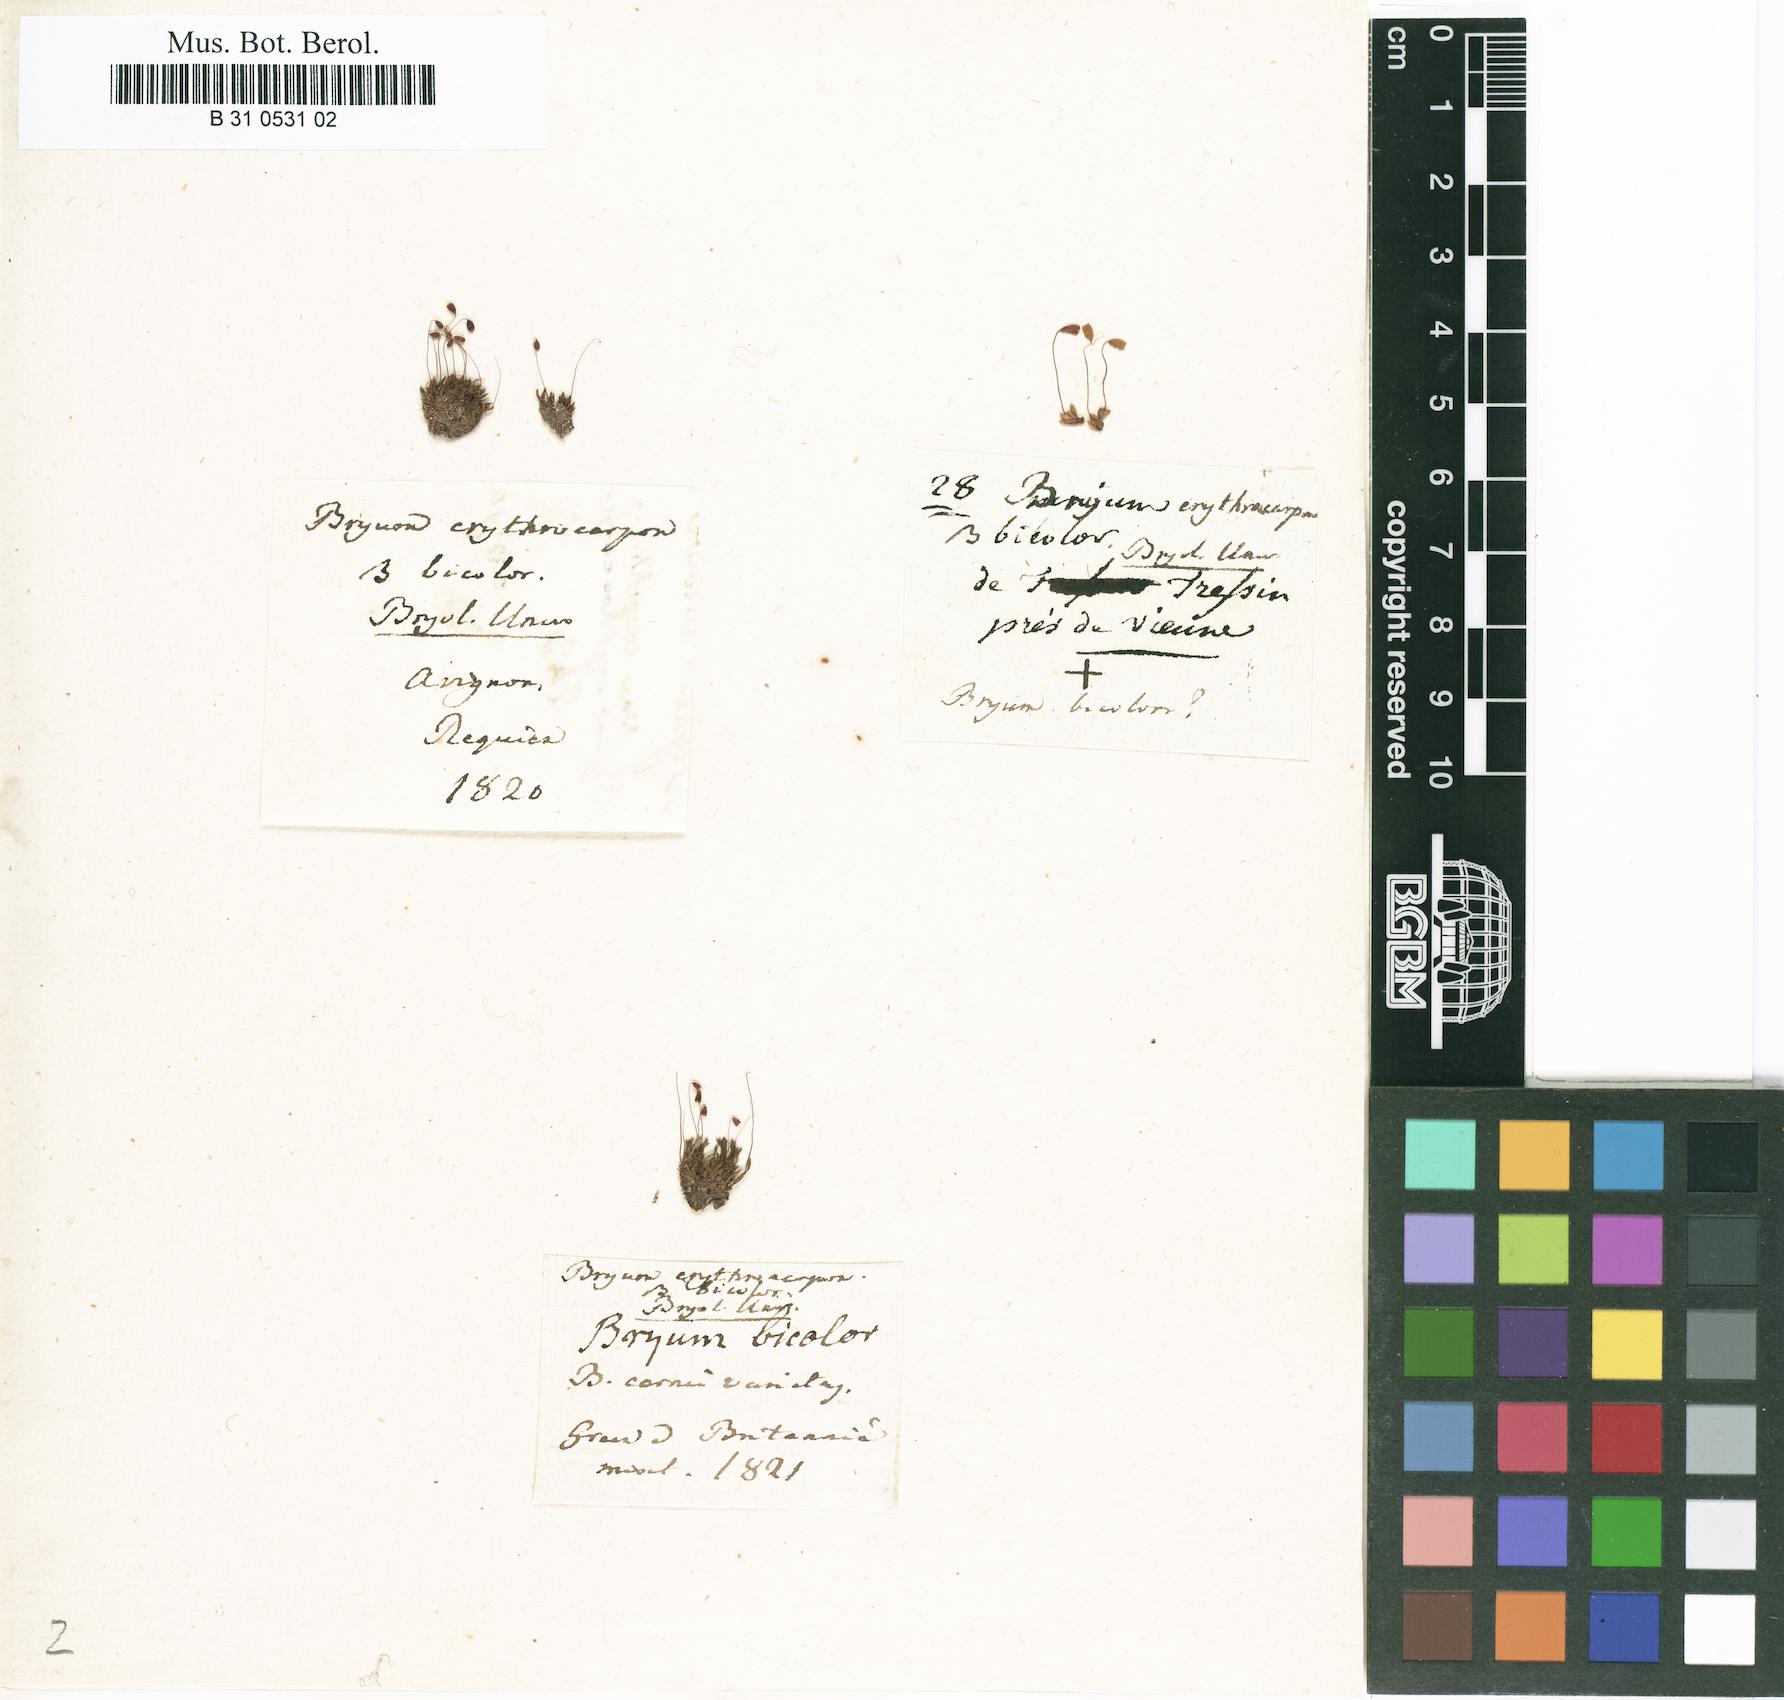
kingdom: Plantae
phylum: Bryophyta
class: Bryopsida
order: Bryales
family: Bryaceae
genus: Bryum
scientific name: Bryum atrovirens
